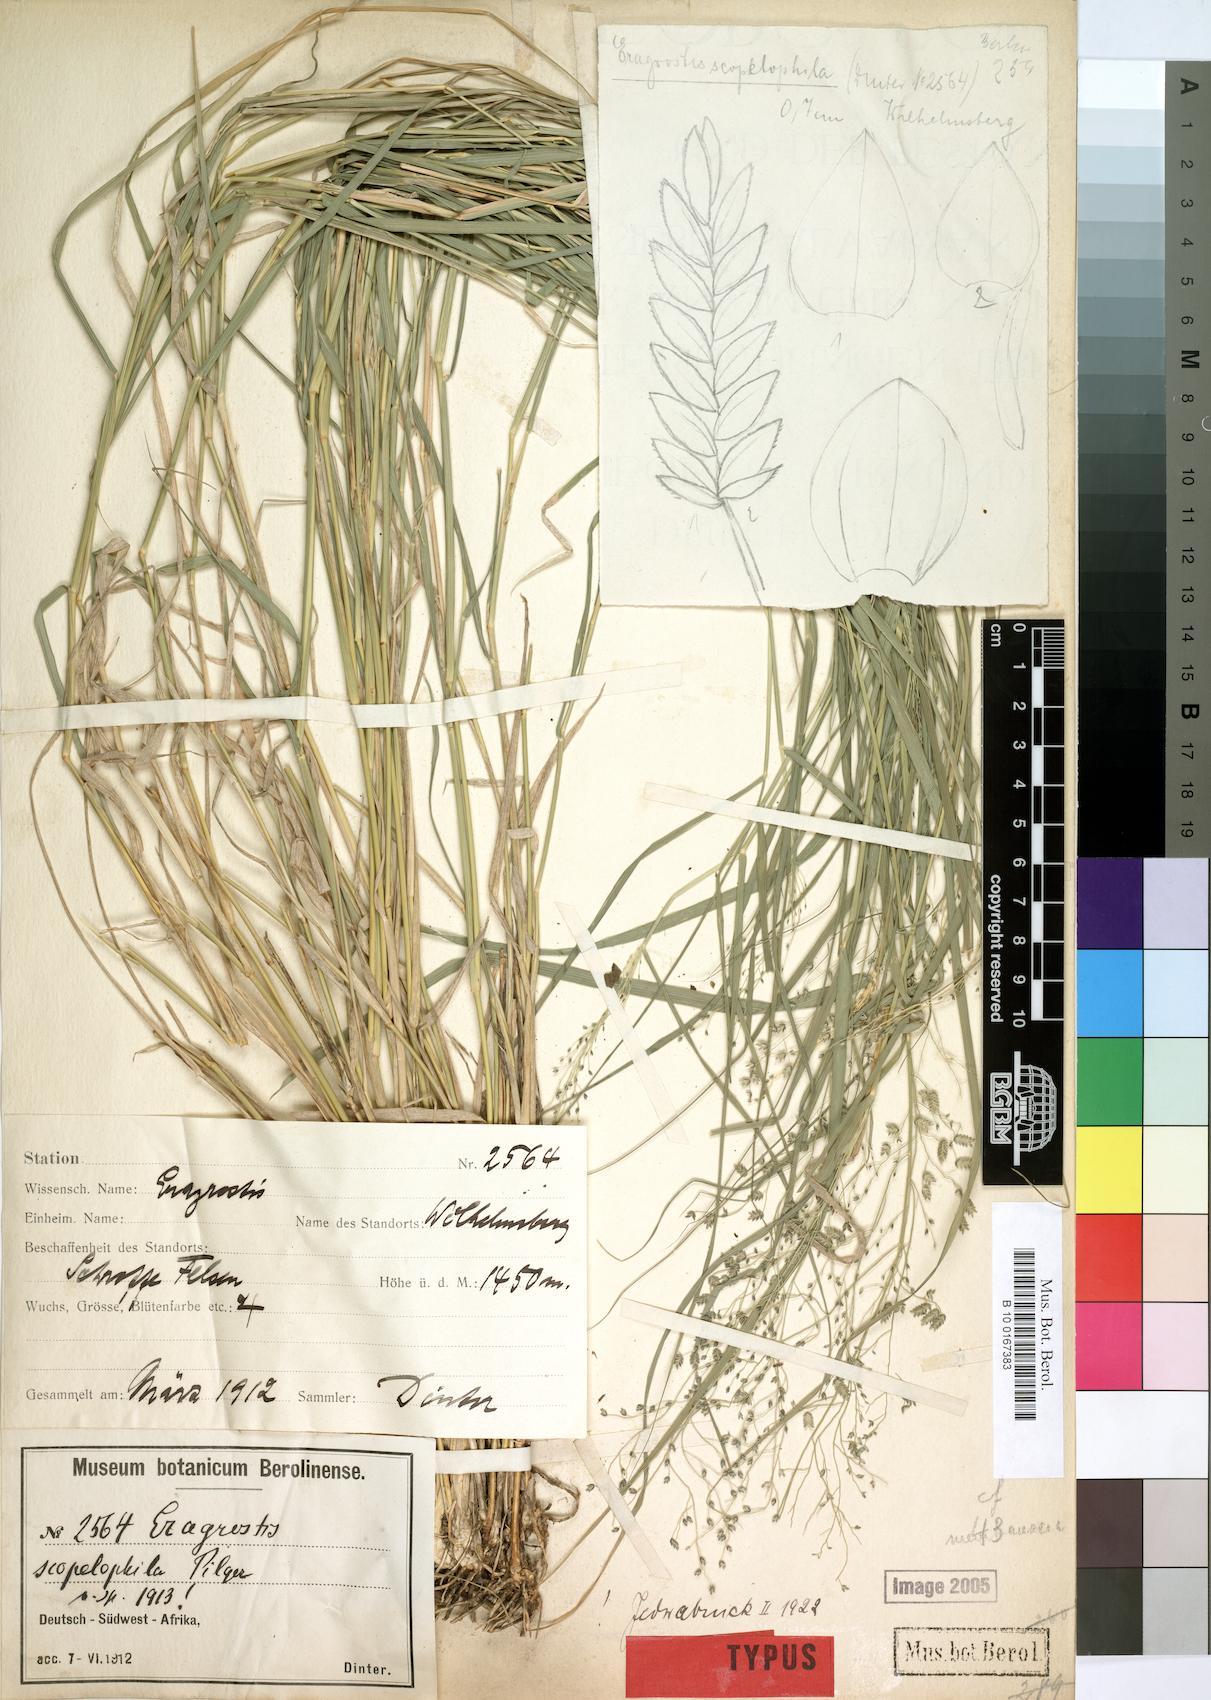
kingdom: Plantae
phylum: Tracheophyta
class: Liliopsida
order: Poales
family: Poaceae
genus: Eragrostis
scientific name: Eragrostis scopelophila
